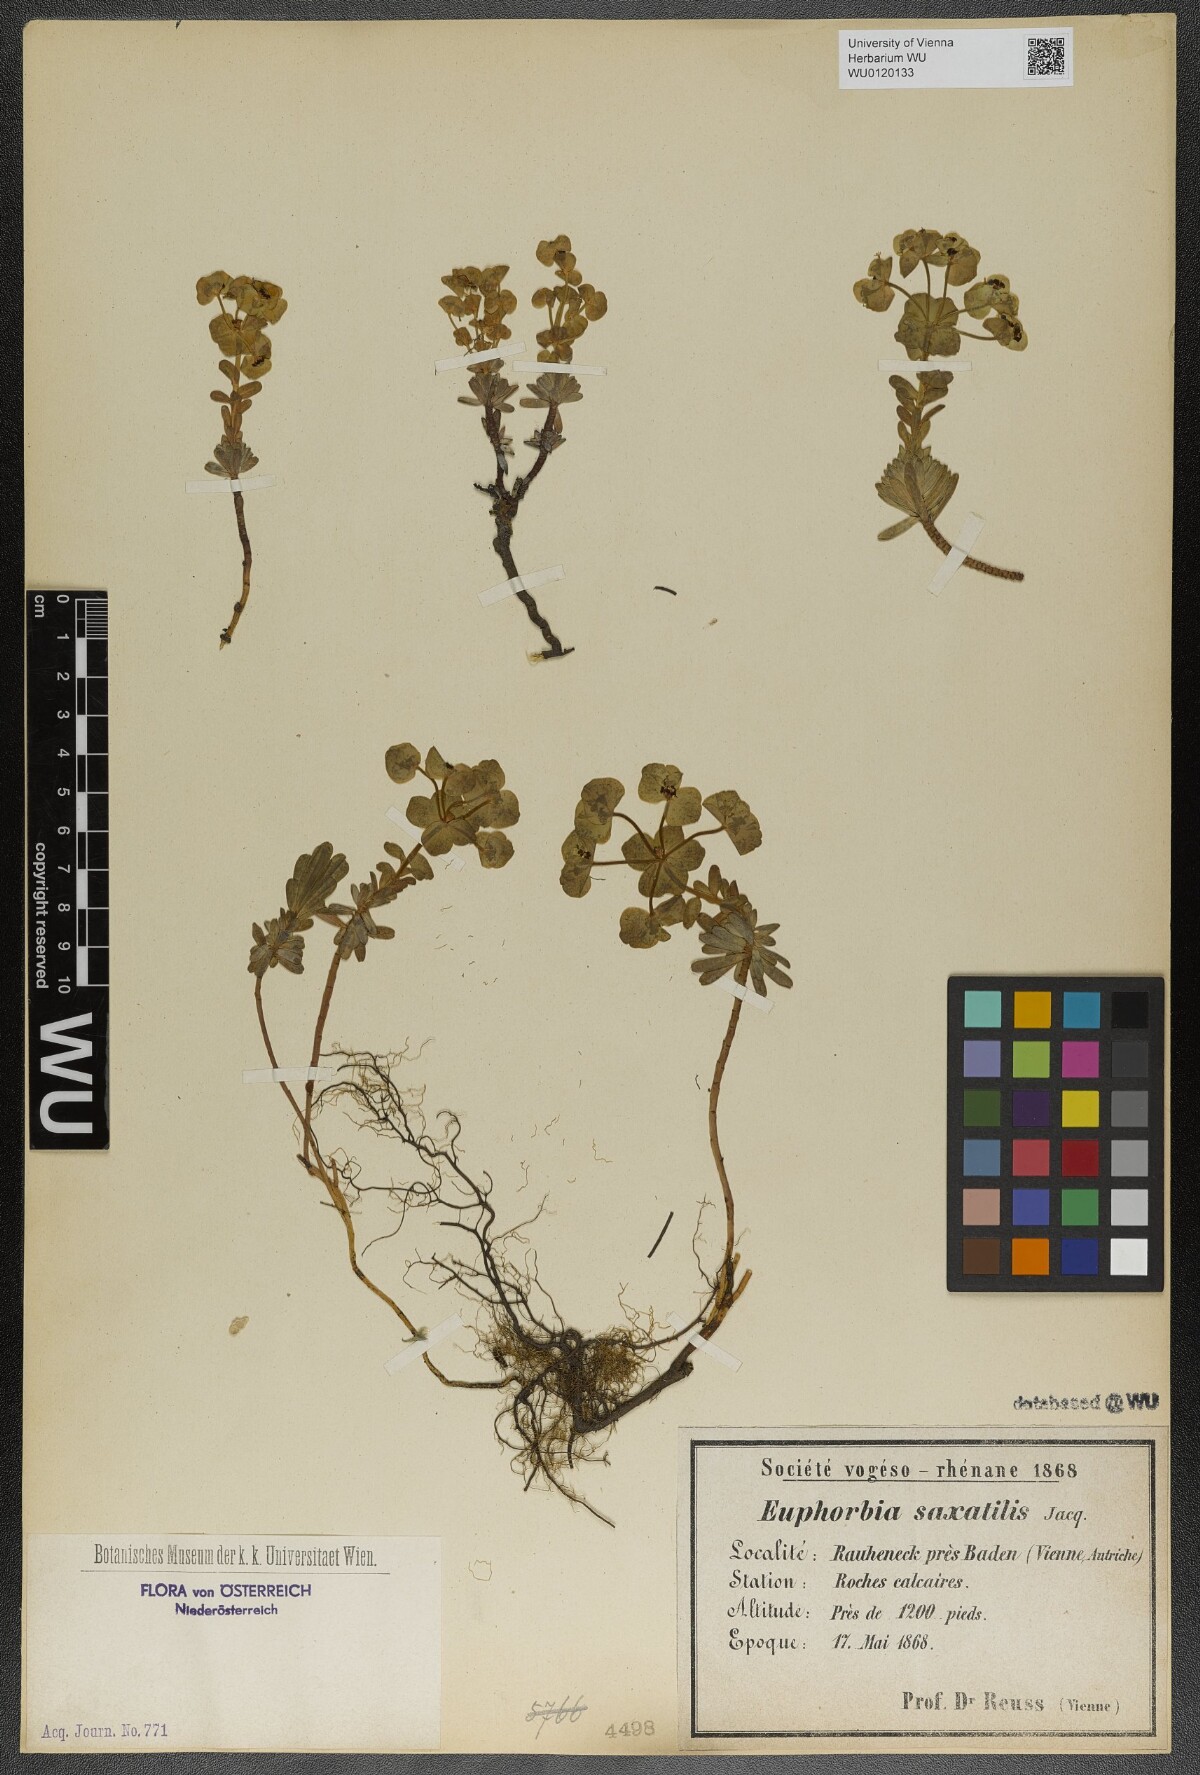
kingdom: Plantae
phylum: Tracheophyta
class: Magnoliopsida
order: Malpighiales
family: Euphorbiaceae
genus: Euphorbia
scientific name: Euphorbia saxatilis
